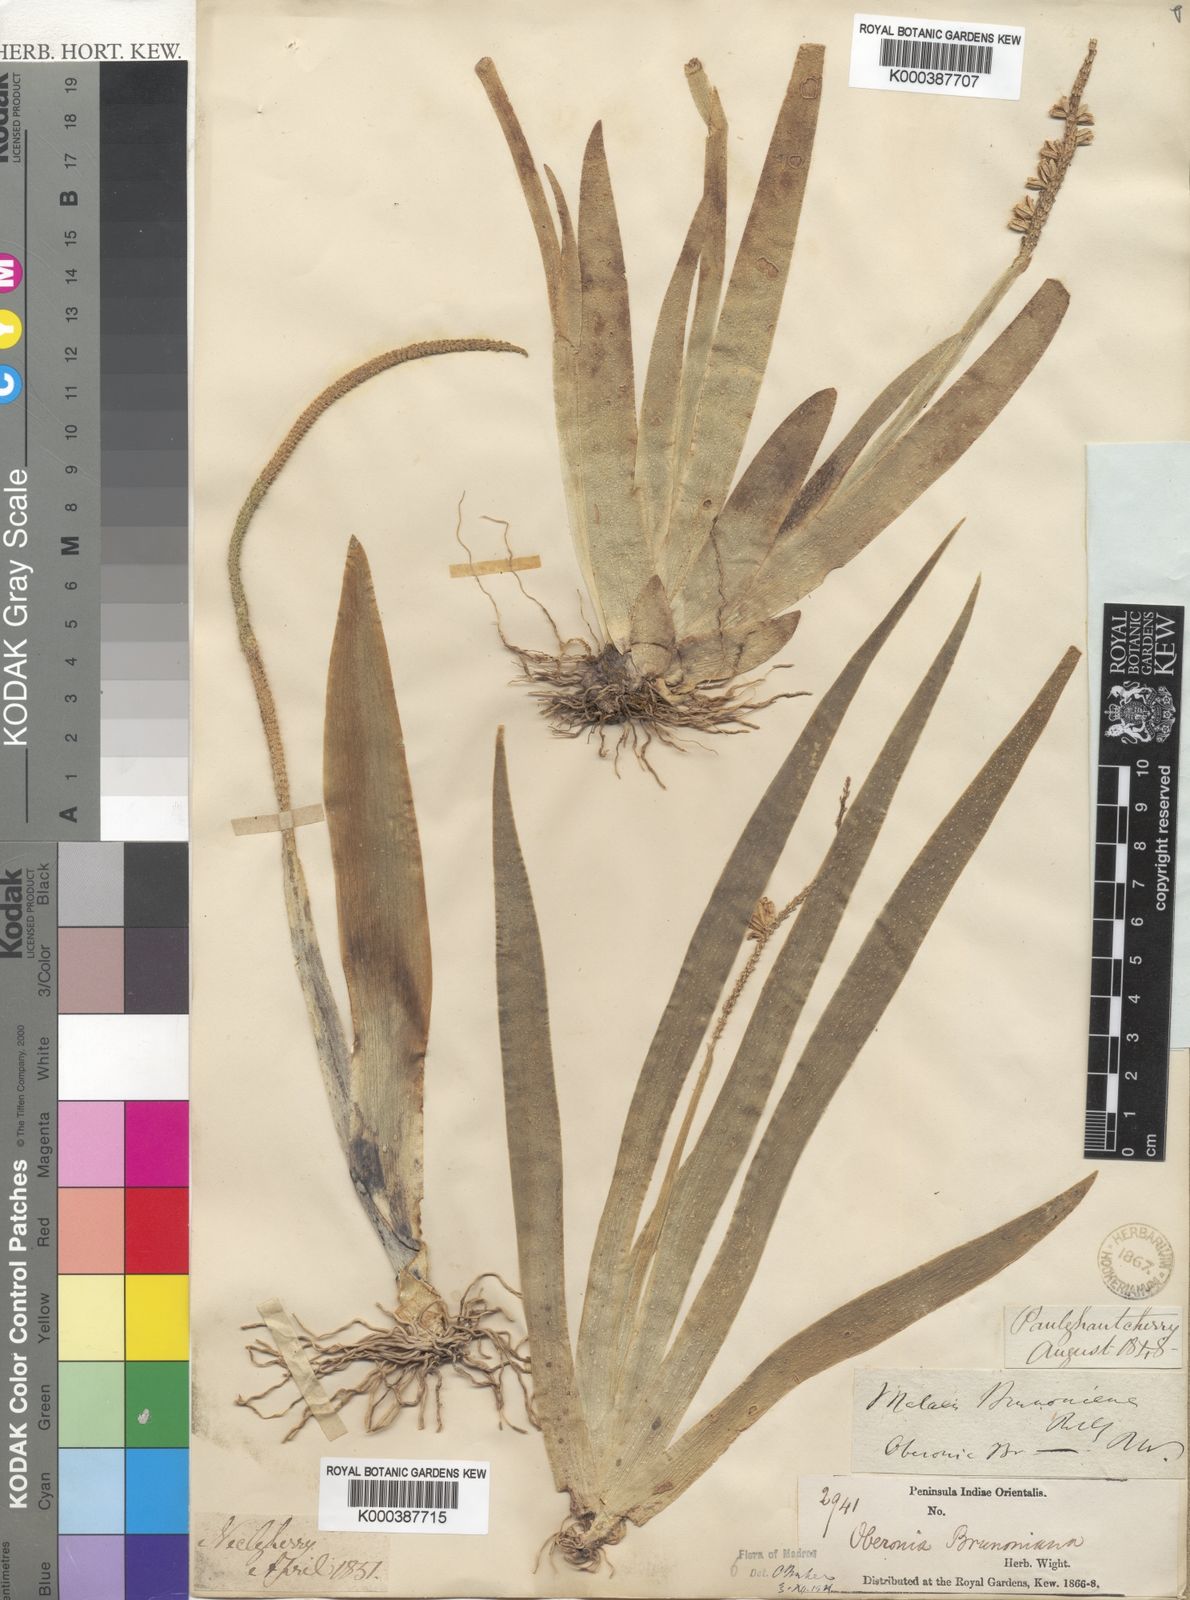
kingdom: Plantae
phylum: Tracheophyta
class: Liliopsida
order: Asparagales
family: Orchidaceae
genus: Oberonia
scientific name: Oberonia brunoniana
